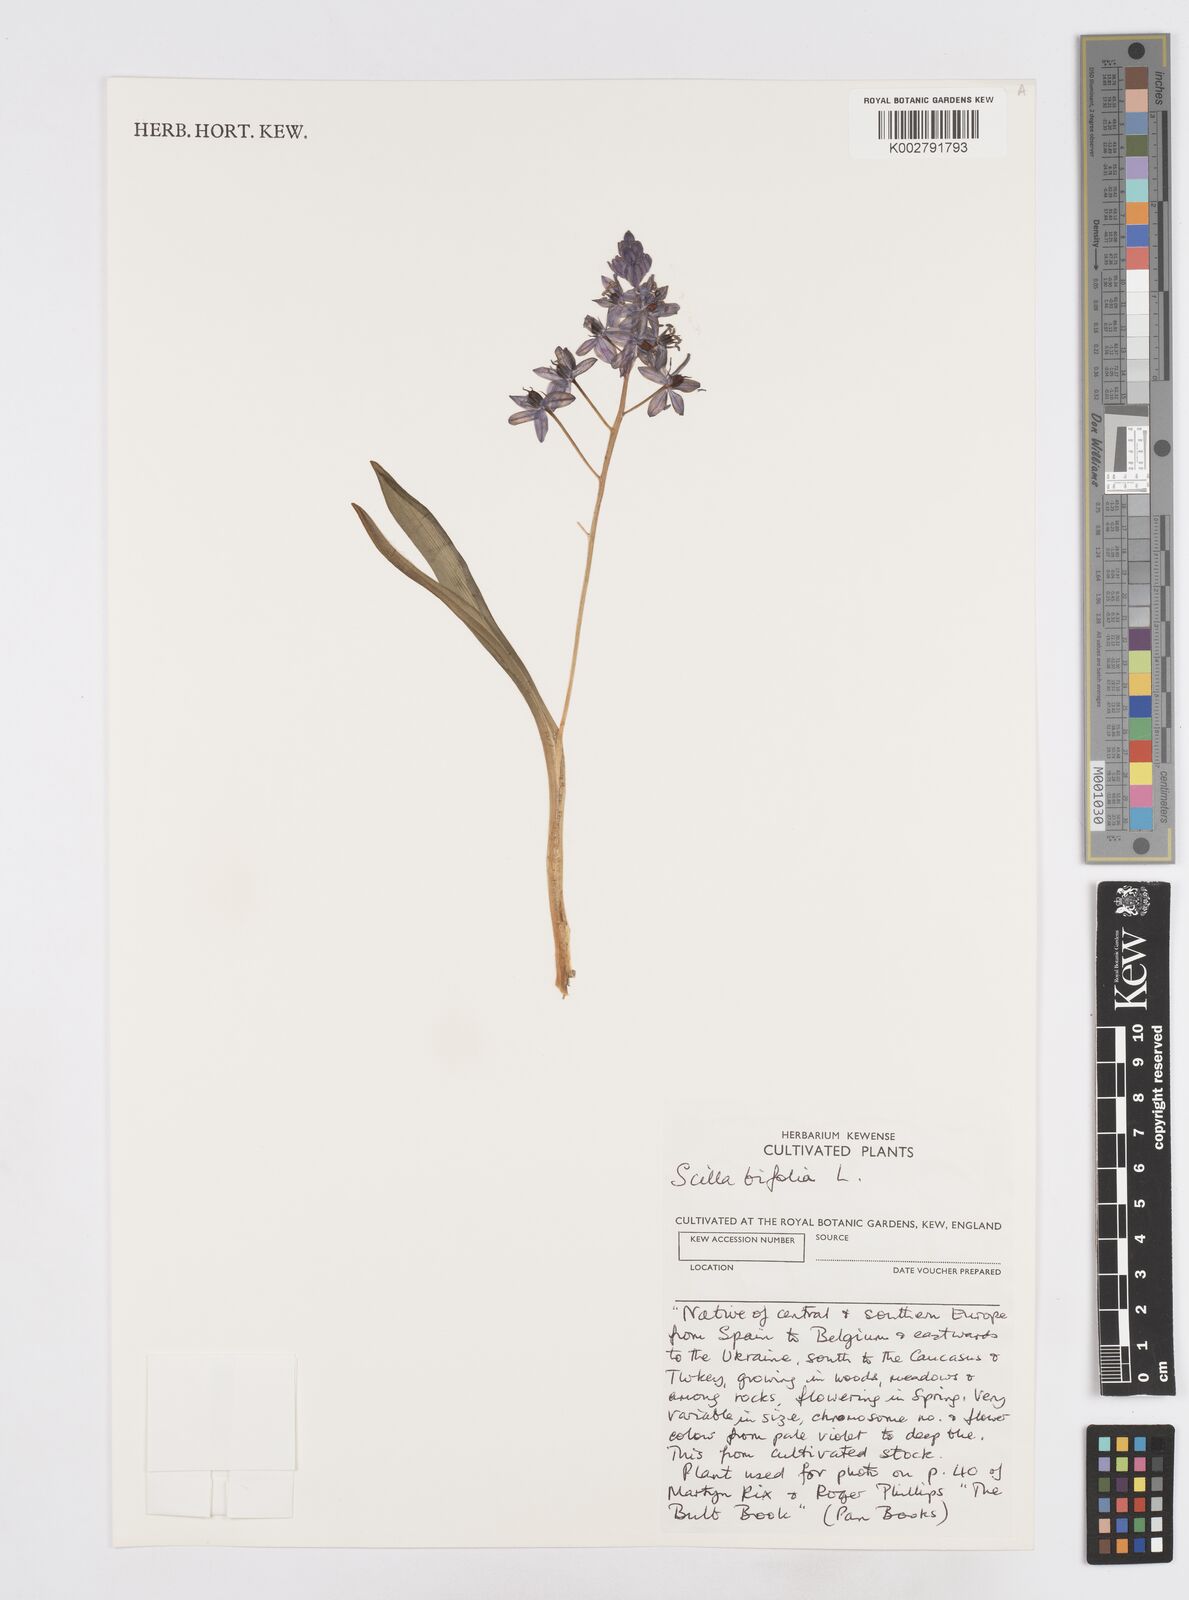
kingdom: Plantae
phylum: Tracheophyta
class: Liliopsida
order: Asparagales
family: Asparagaceae
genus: Scilla
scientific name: Scilla bifolia
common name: Alpine squill
